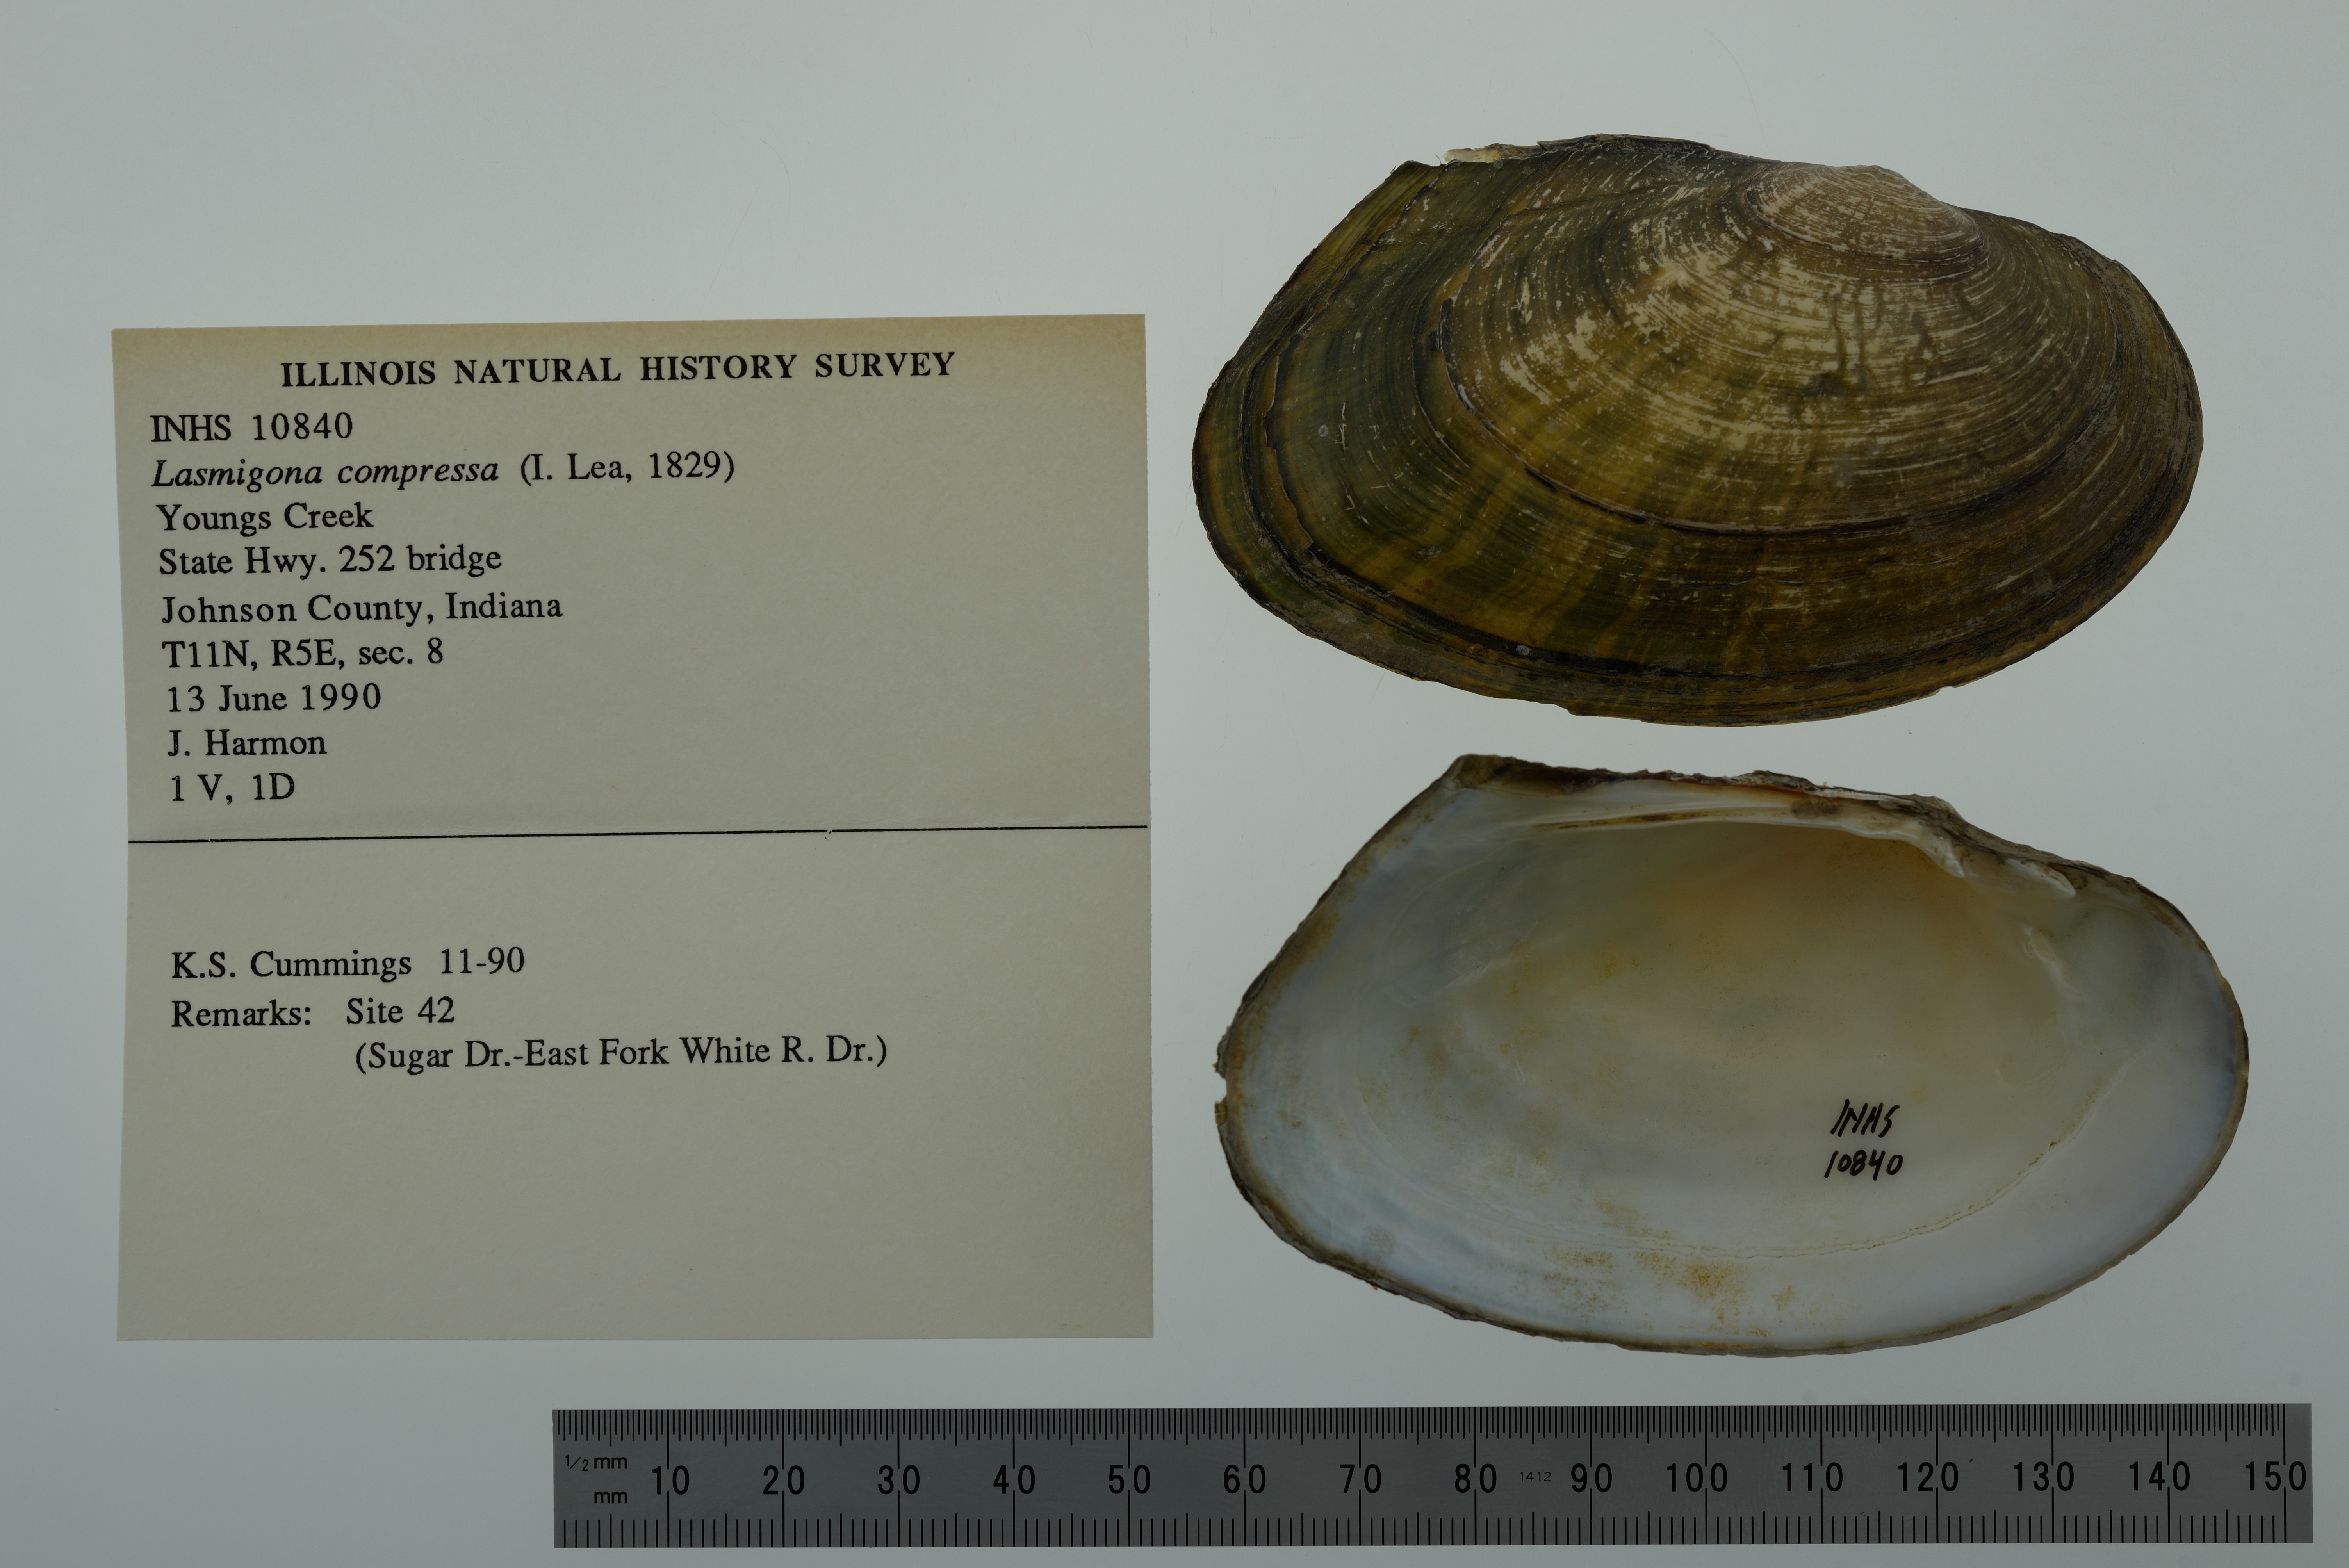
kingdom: Animalia
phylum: Mollusca
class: Bivalvia
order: Unionida
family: Unionidae
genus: Lasmigona
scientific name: Lasmigona compressa
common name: Creek heelsplitter
